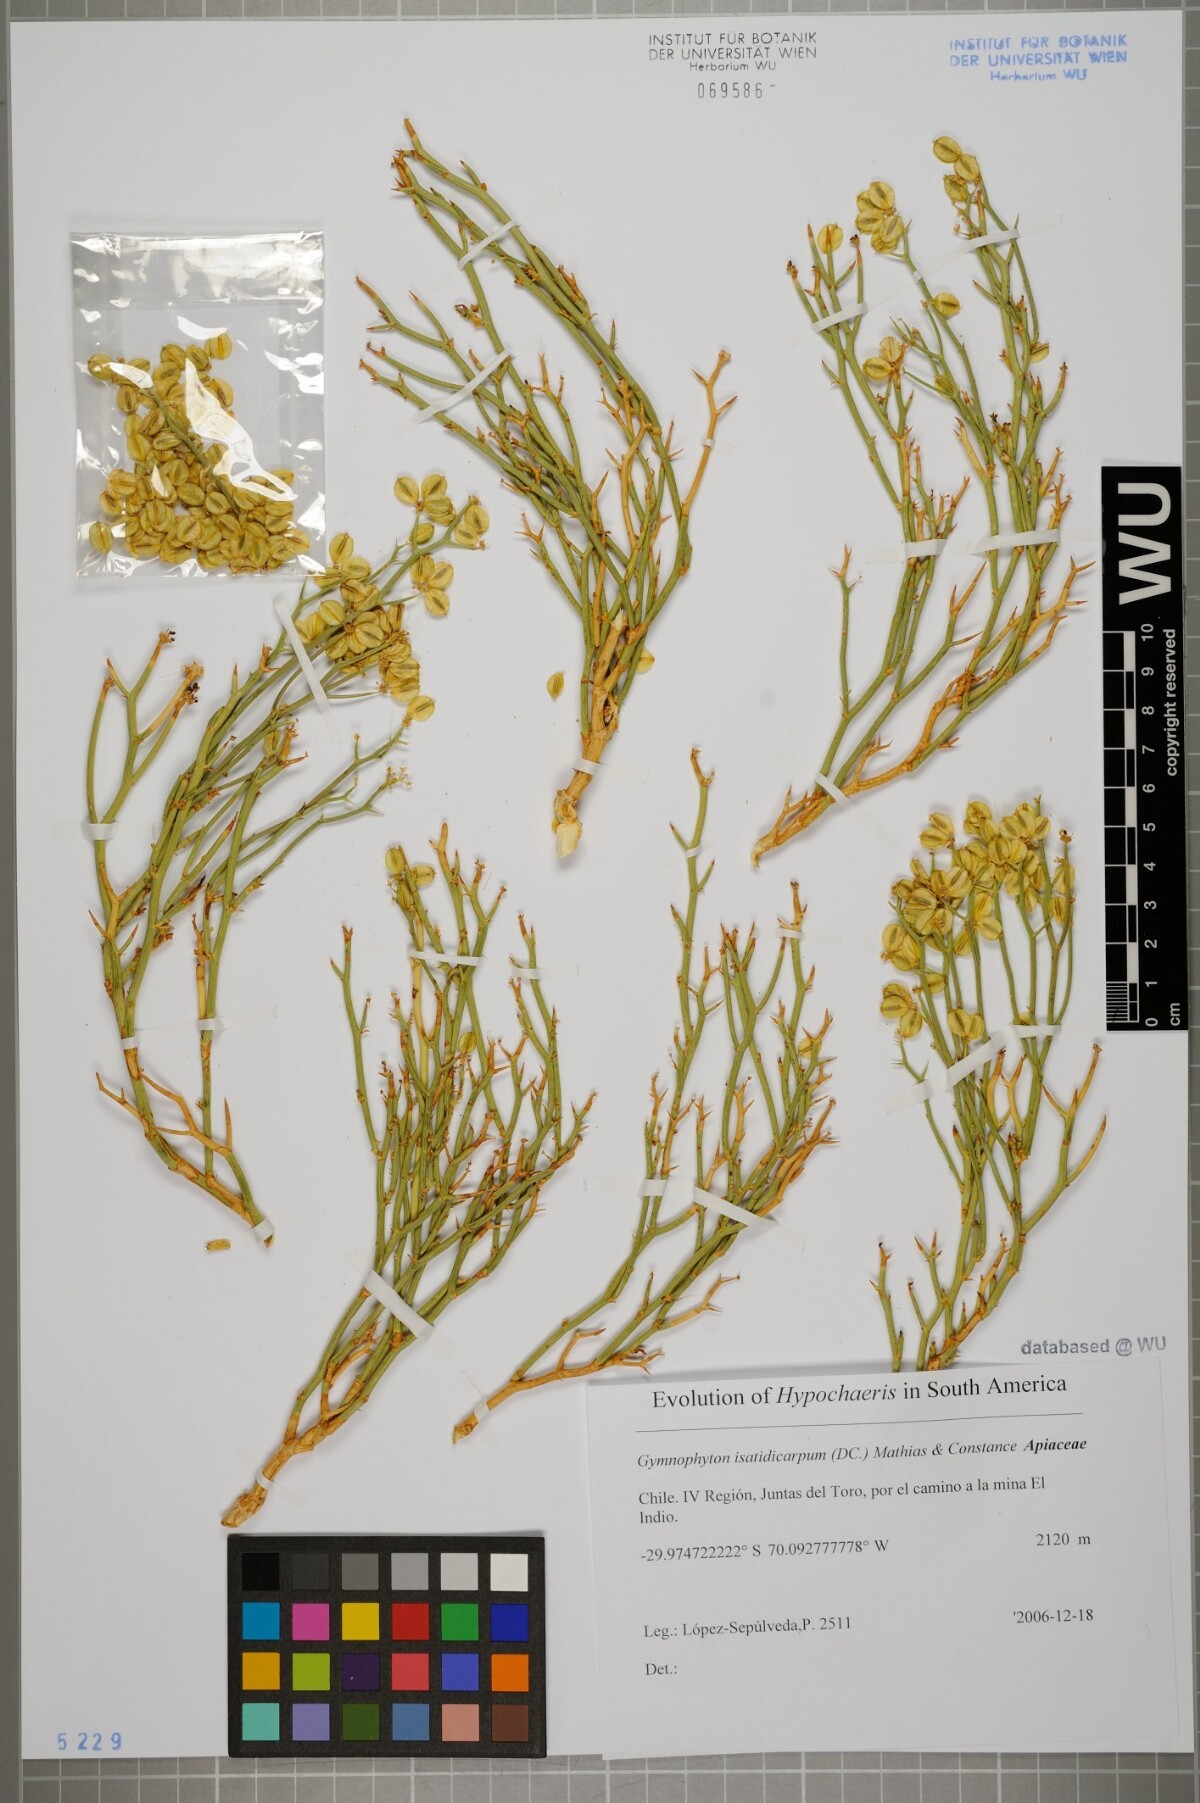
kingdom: Plantae
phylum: Tracheophyta
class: Magnoliopsida
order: Apiales
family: Apiaceae
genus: Gymnophyton
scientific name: Gymnophyton isatidicarpum
